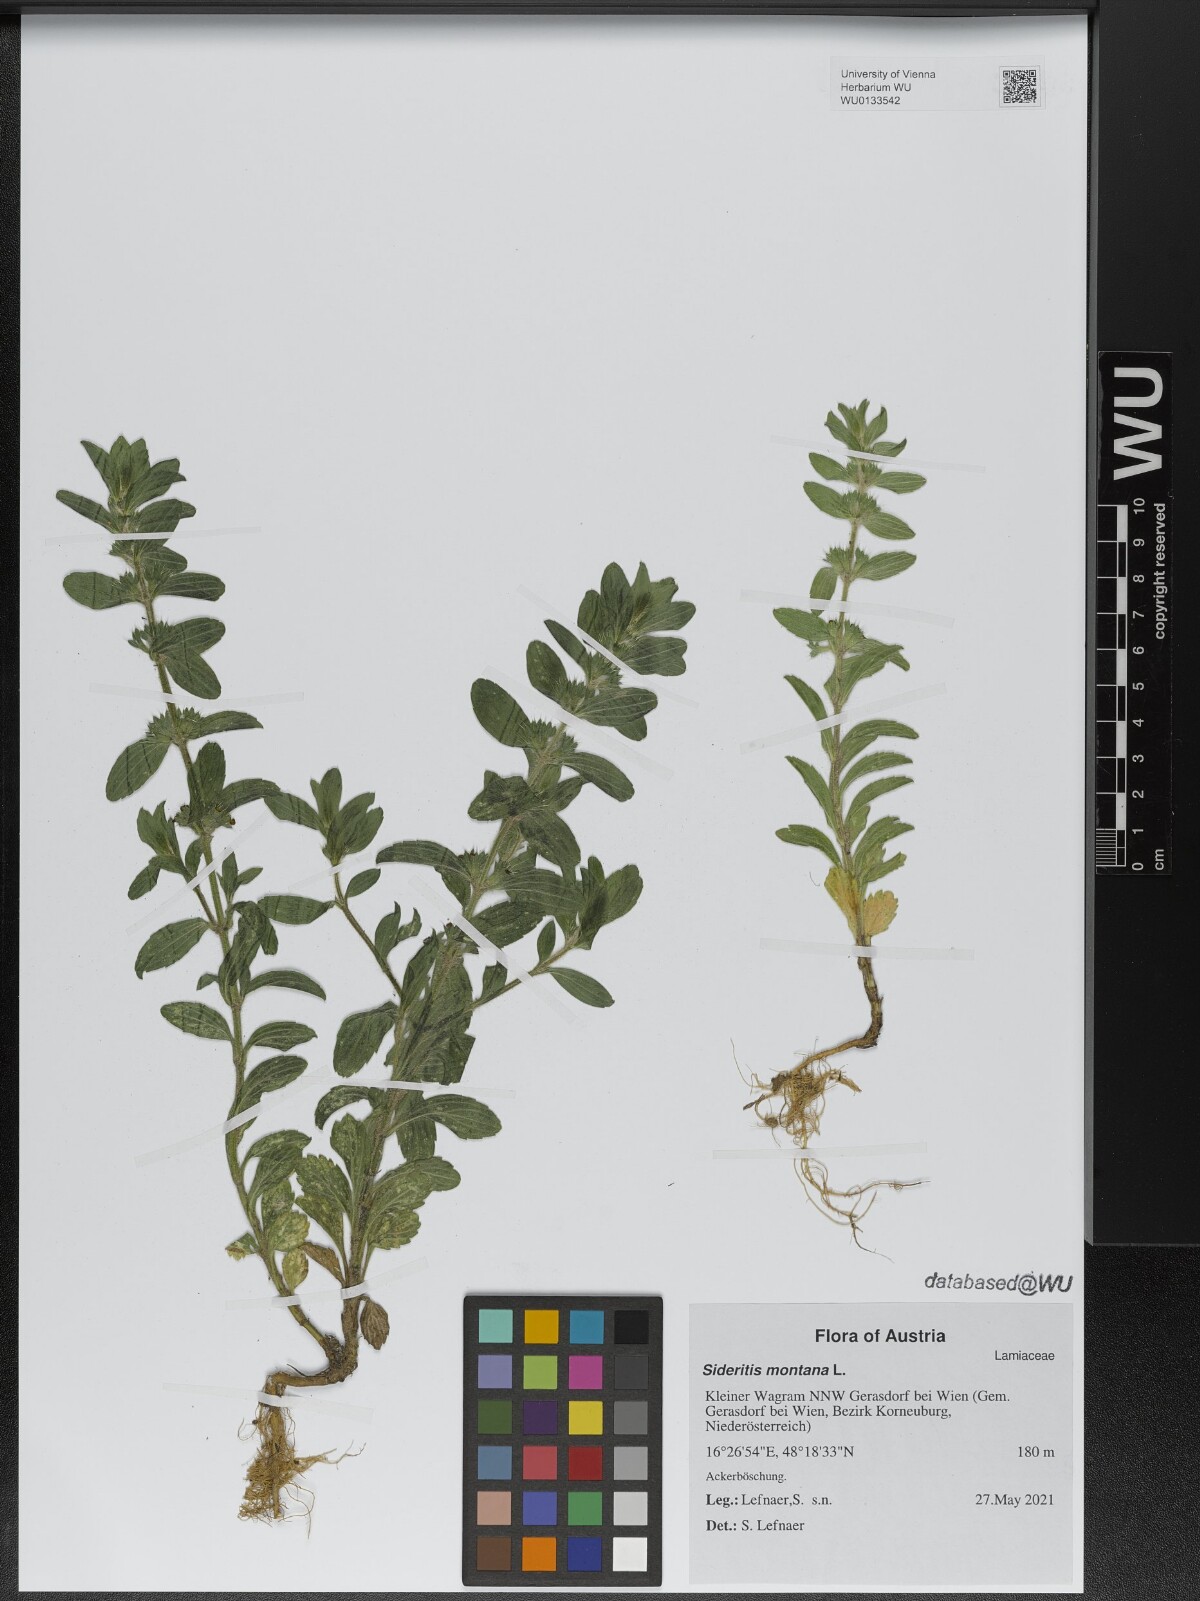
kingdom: Plantae
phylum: Tracheophyta
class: Magnoliopsida
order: Lamiales
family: Lamiaceae
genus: Sideritis
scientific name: Sideritis montana
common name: Mountain ironwort
